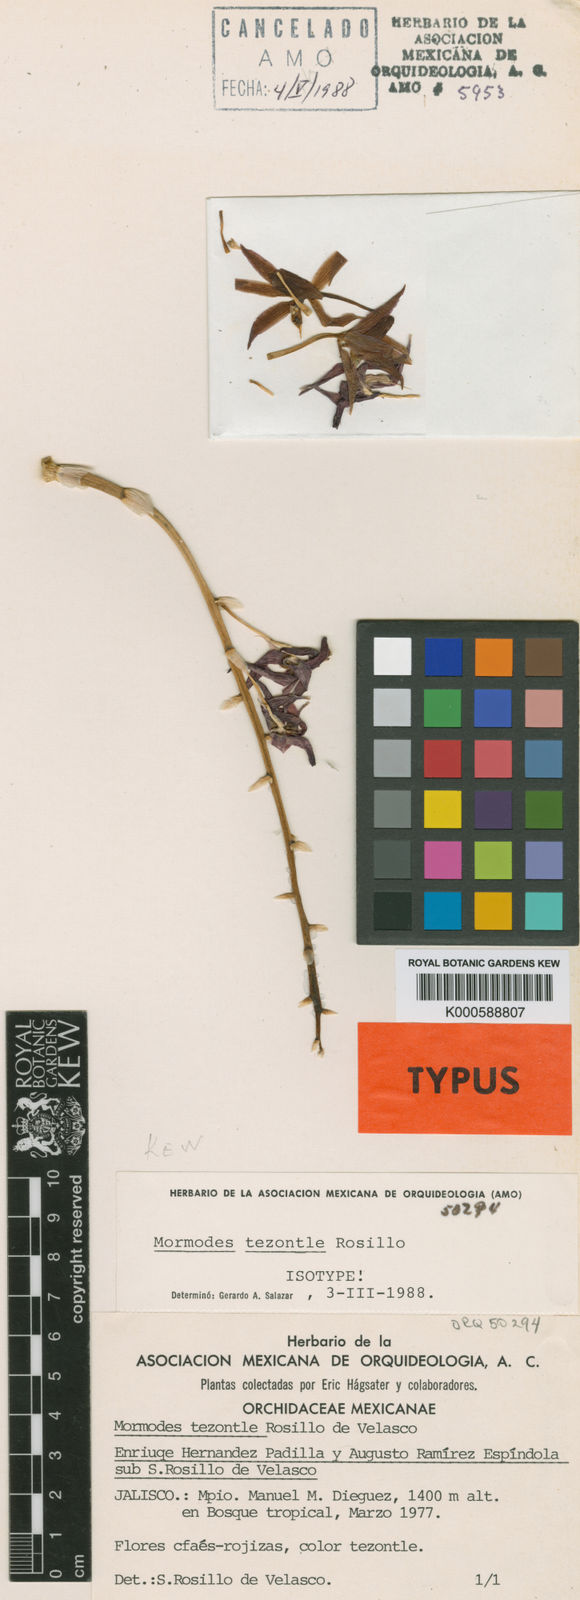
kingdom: Plantae
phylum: Tracheophyta
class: Liliopsida
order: Asparagales
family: Orchidaceae
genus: Mormodes
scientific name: Mormodes tezontle
